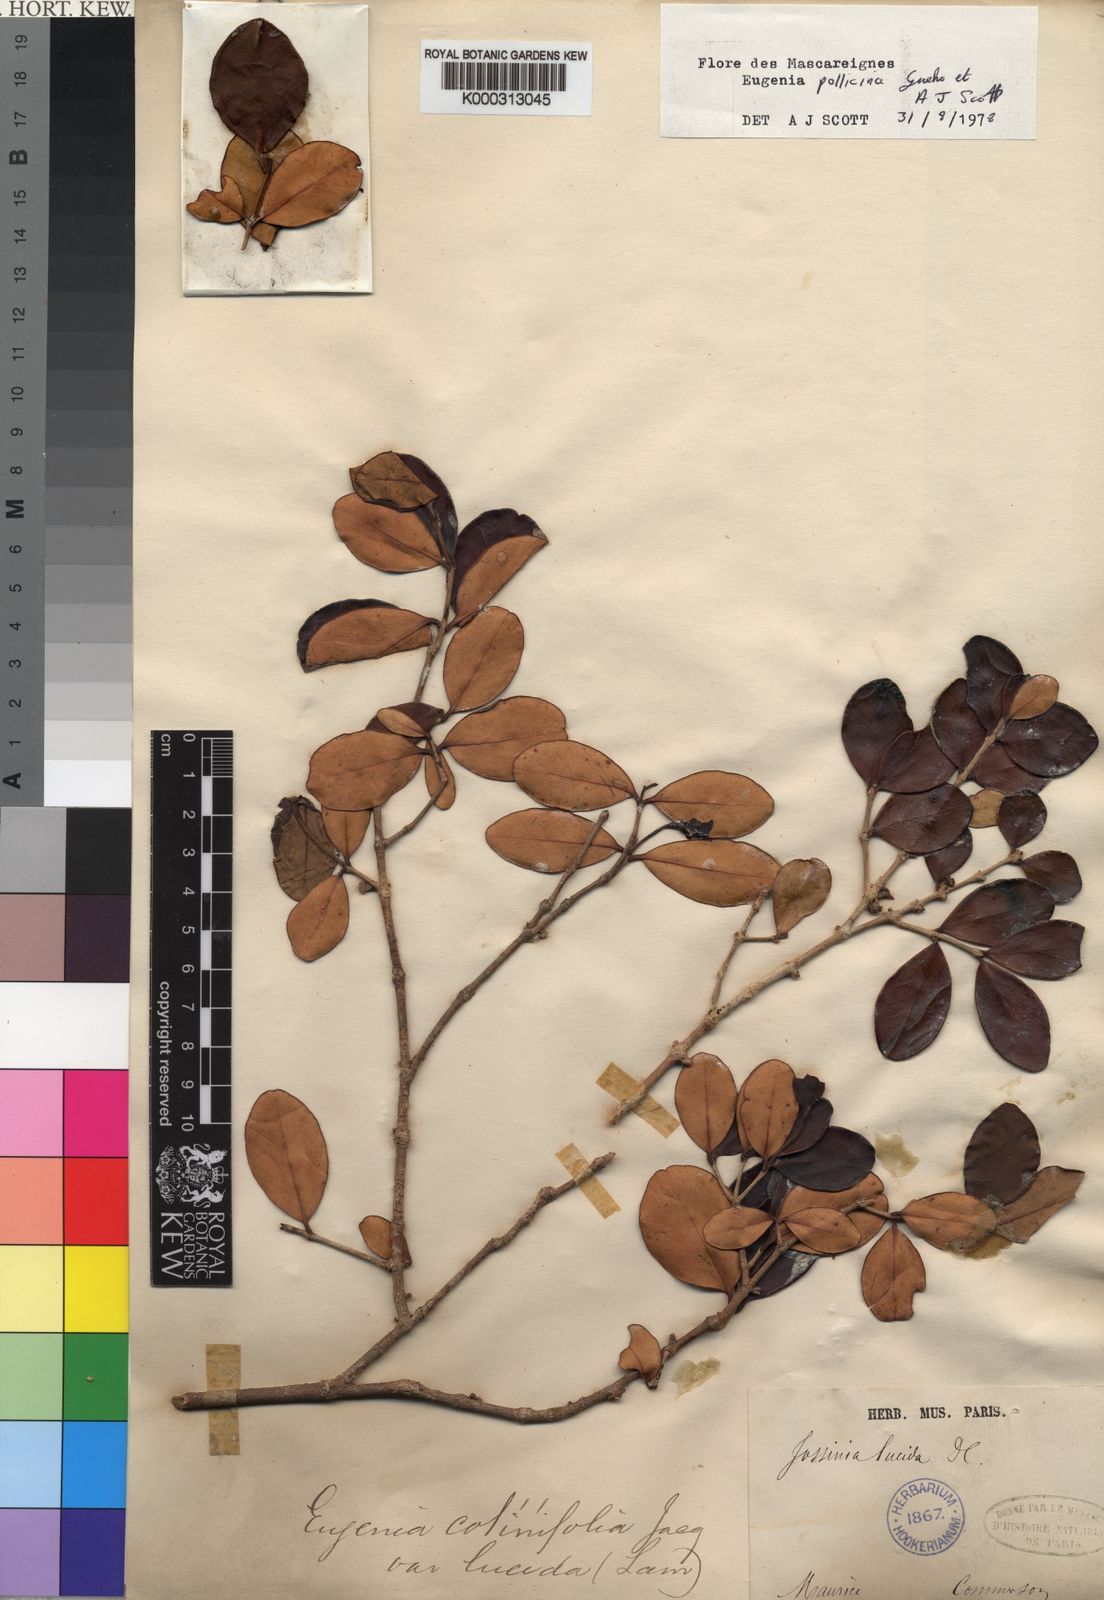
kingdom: Plantae
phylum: Tracheophyta
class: Magnoliopsida
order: Myrtales
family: Myrtaceae
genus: Eugenia
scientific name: Eugenia
